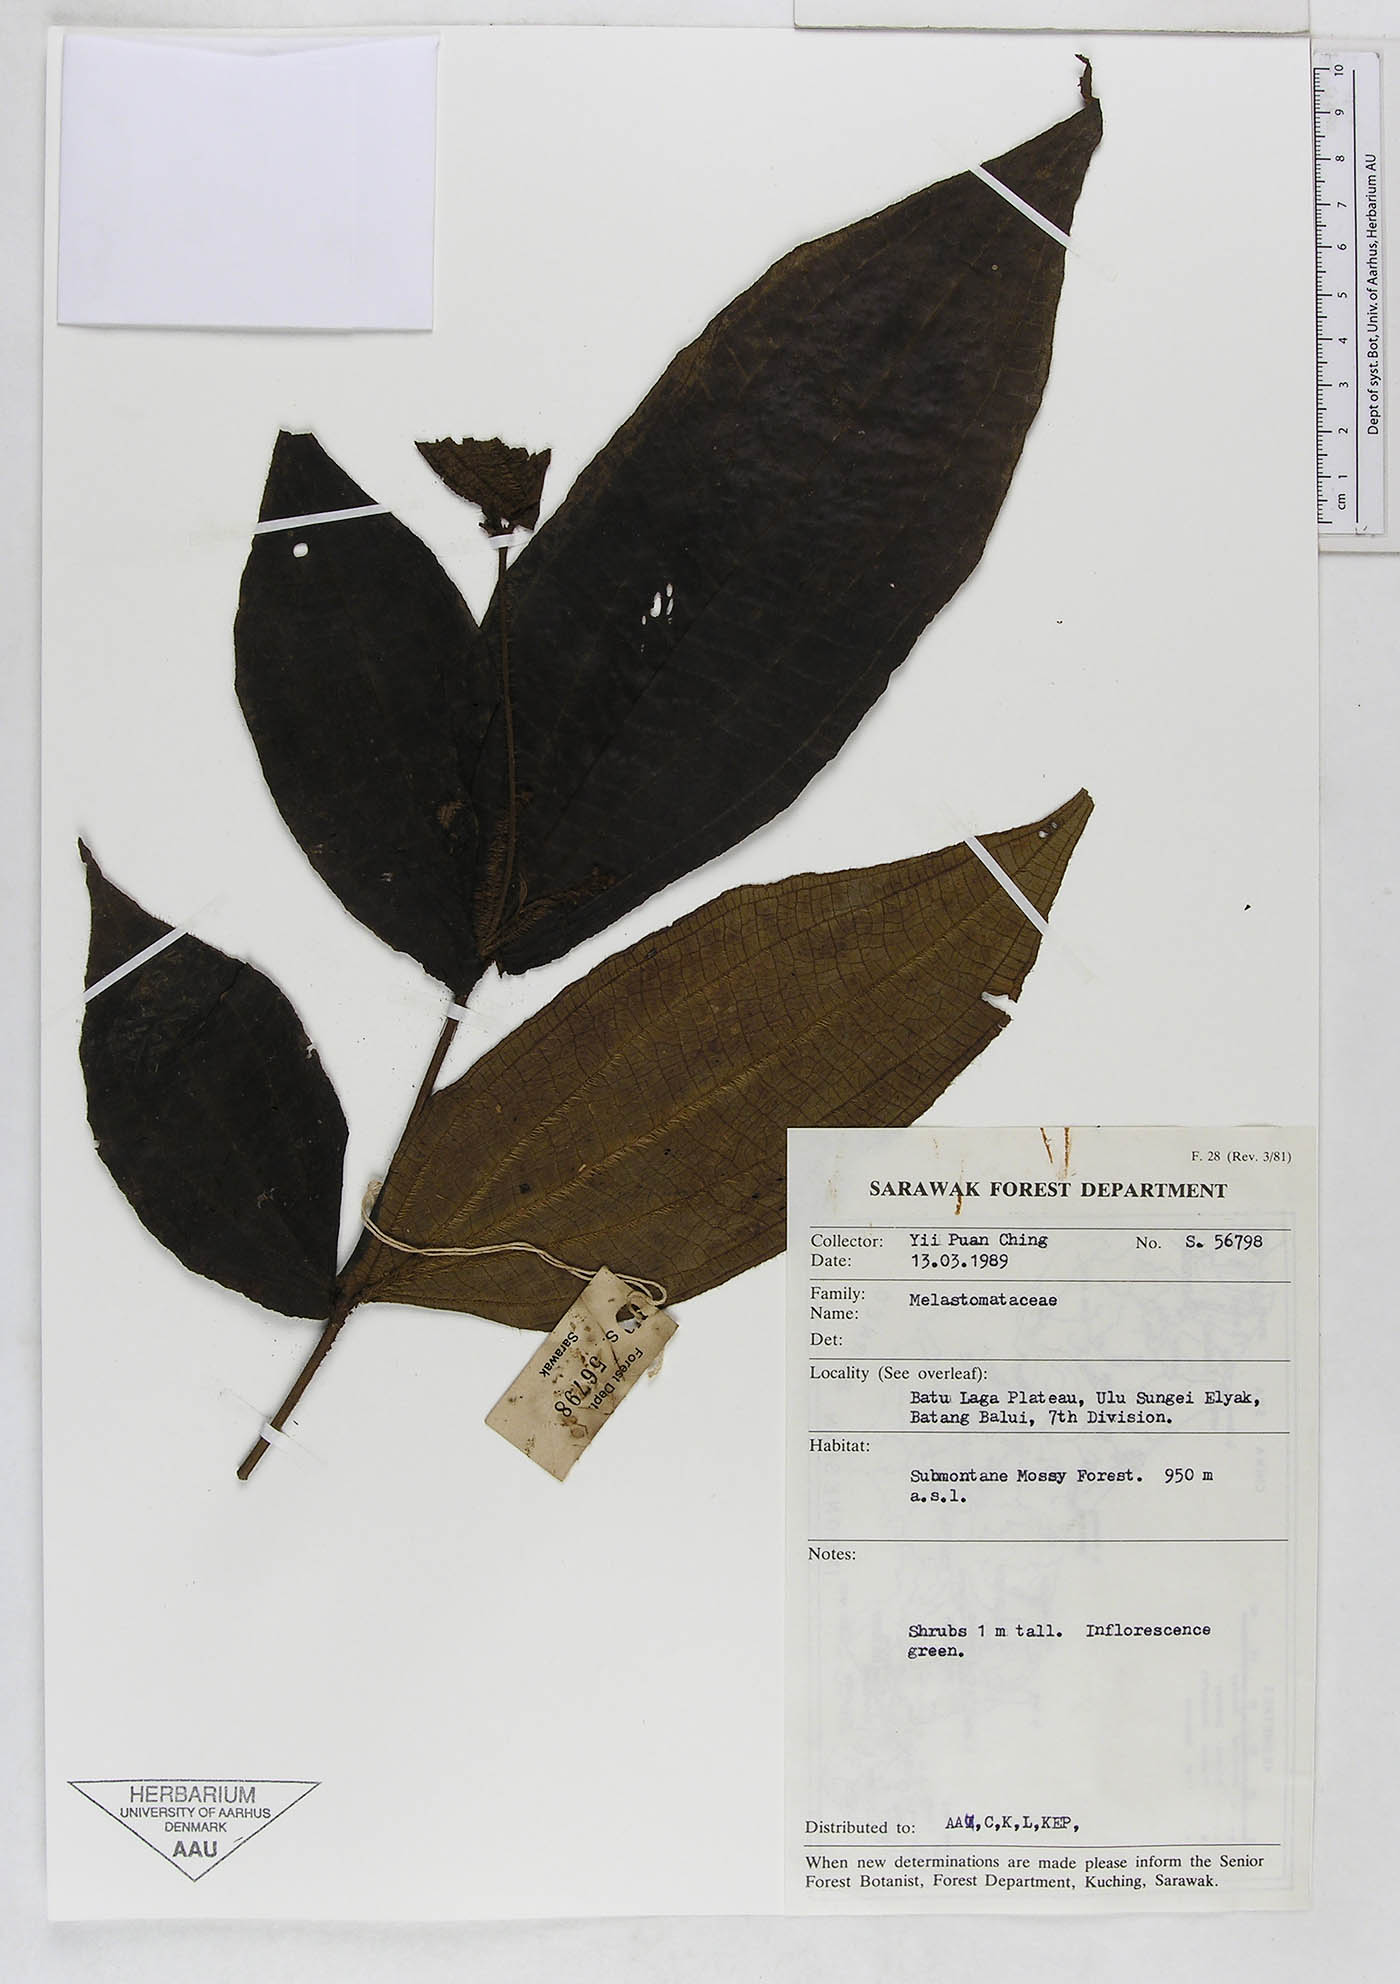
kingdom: Plantae
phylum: Tracheophyta
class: Magnoliopsida
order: Myrtales
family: Melastomataceae
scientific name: Melastomataceae
